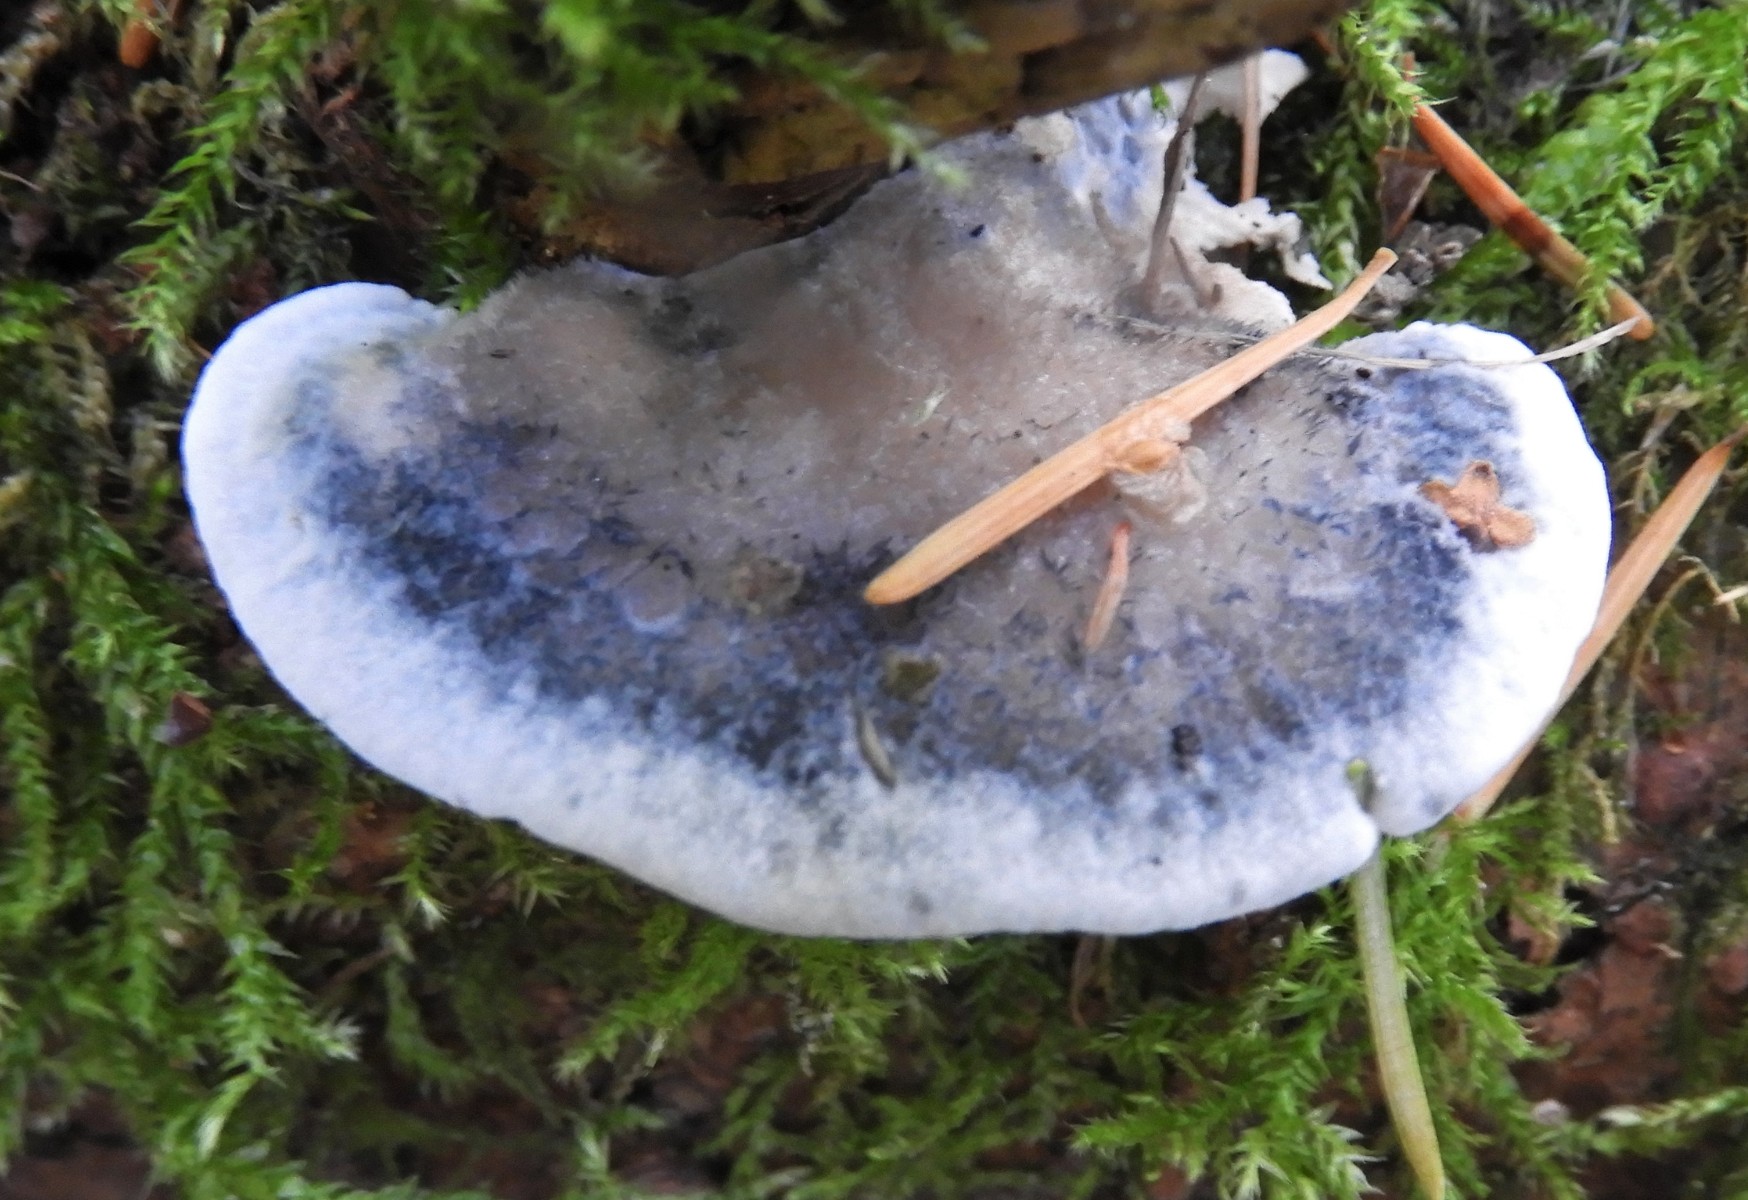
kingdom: Fungi
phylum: Basidiomycota
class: Agaricomycetes
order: Polyporales
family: Polyporaceae
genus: Cyanosporus
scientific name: Cyanosporus caesius
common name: blålig kødporesvamp
